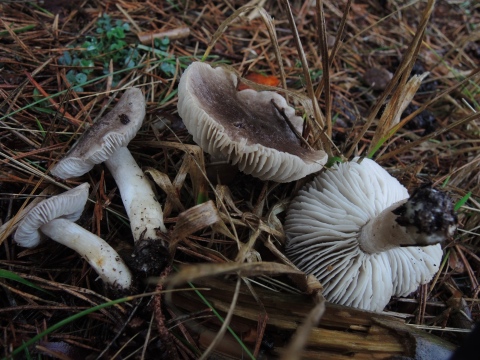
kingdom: Fungi
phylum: Basidiomycota
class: Agaricomycetes
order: Agaricales
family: Tricholomataceae
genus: Tricholoma
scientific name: Tricholoma terreum
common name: jordfarvet ridderhat
